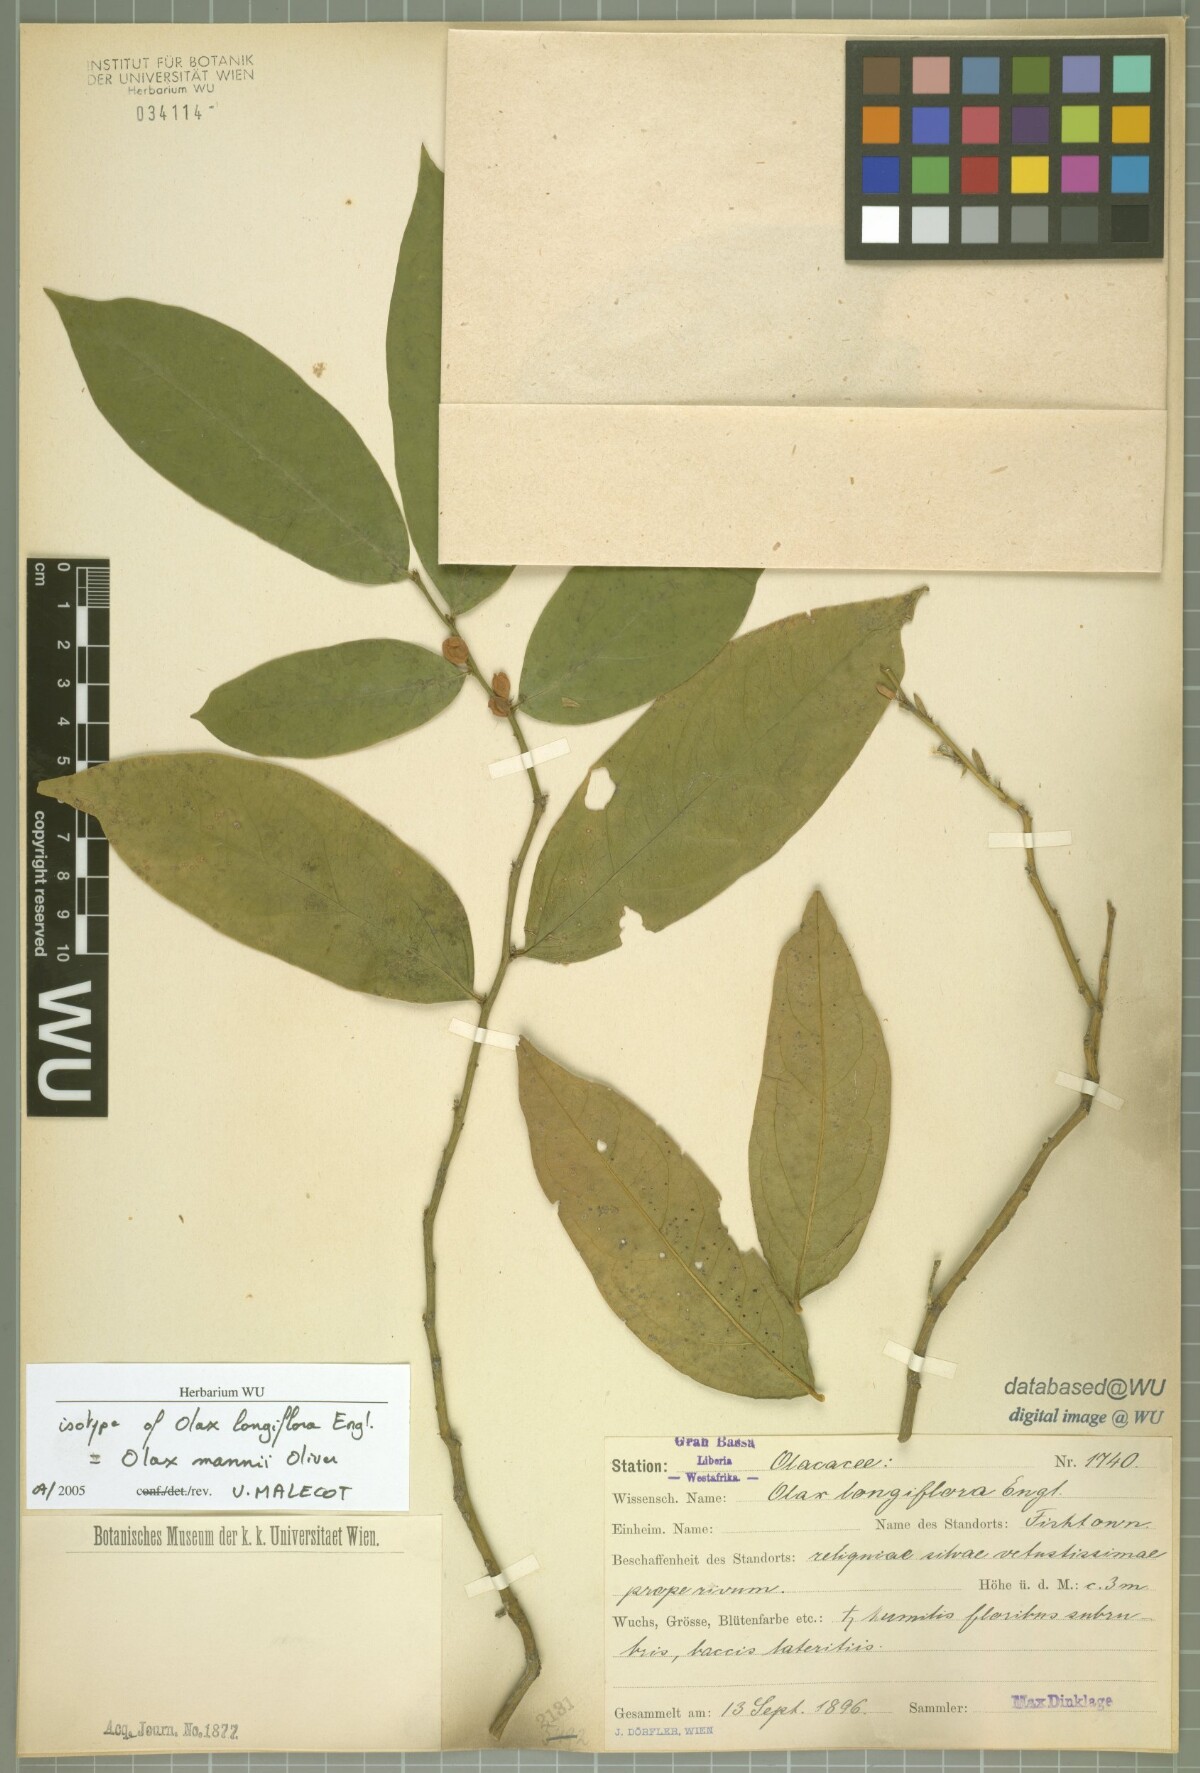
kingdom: Plantae
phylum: Tracheophyta
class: Magnoliopsida
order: Santalales
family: Olacaceae
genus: Olax
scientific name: Olax mannii
